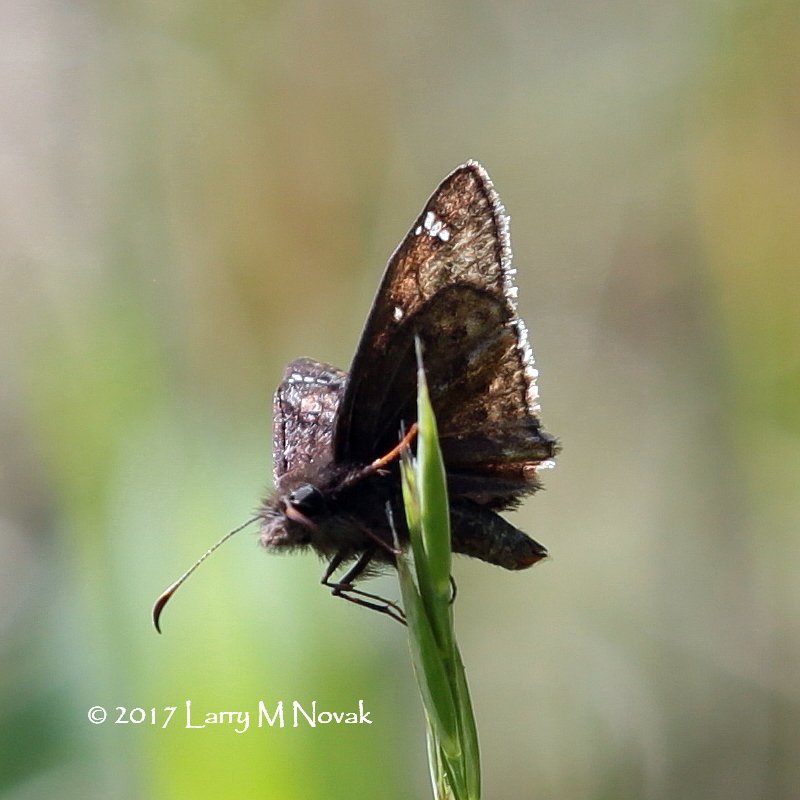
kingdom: Animalia
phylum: Arthropoda
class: Insecta
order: Lepidoptera
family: Hesperiidae
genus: Gesta
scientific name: Gesta
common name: Juvenal's Duskywing
